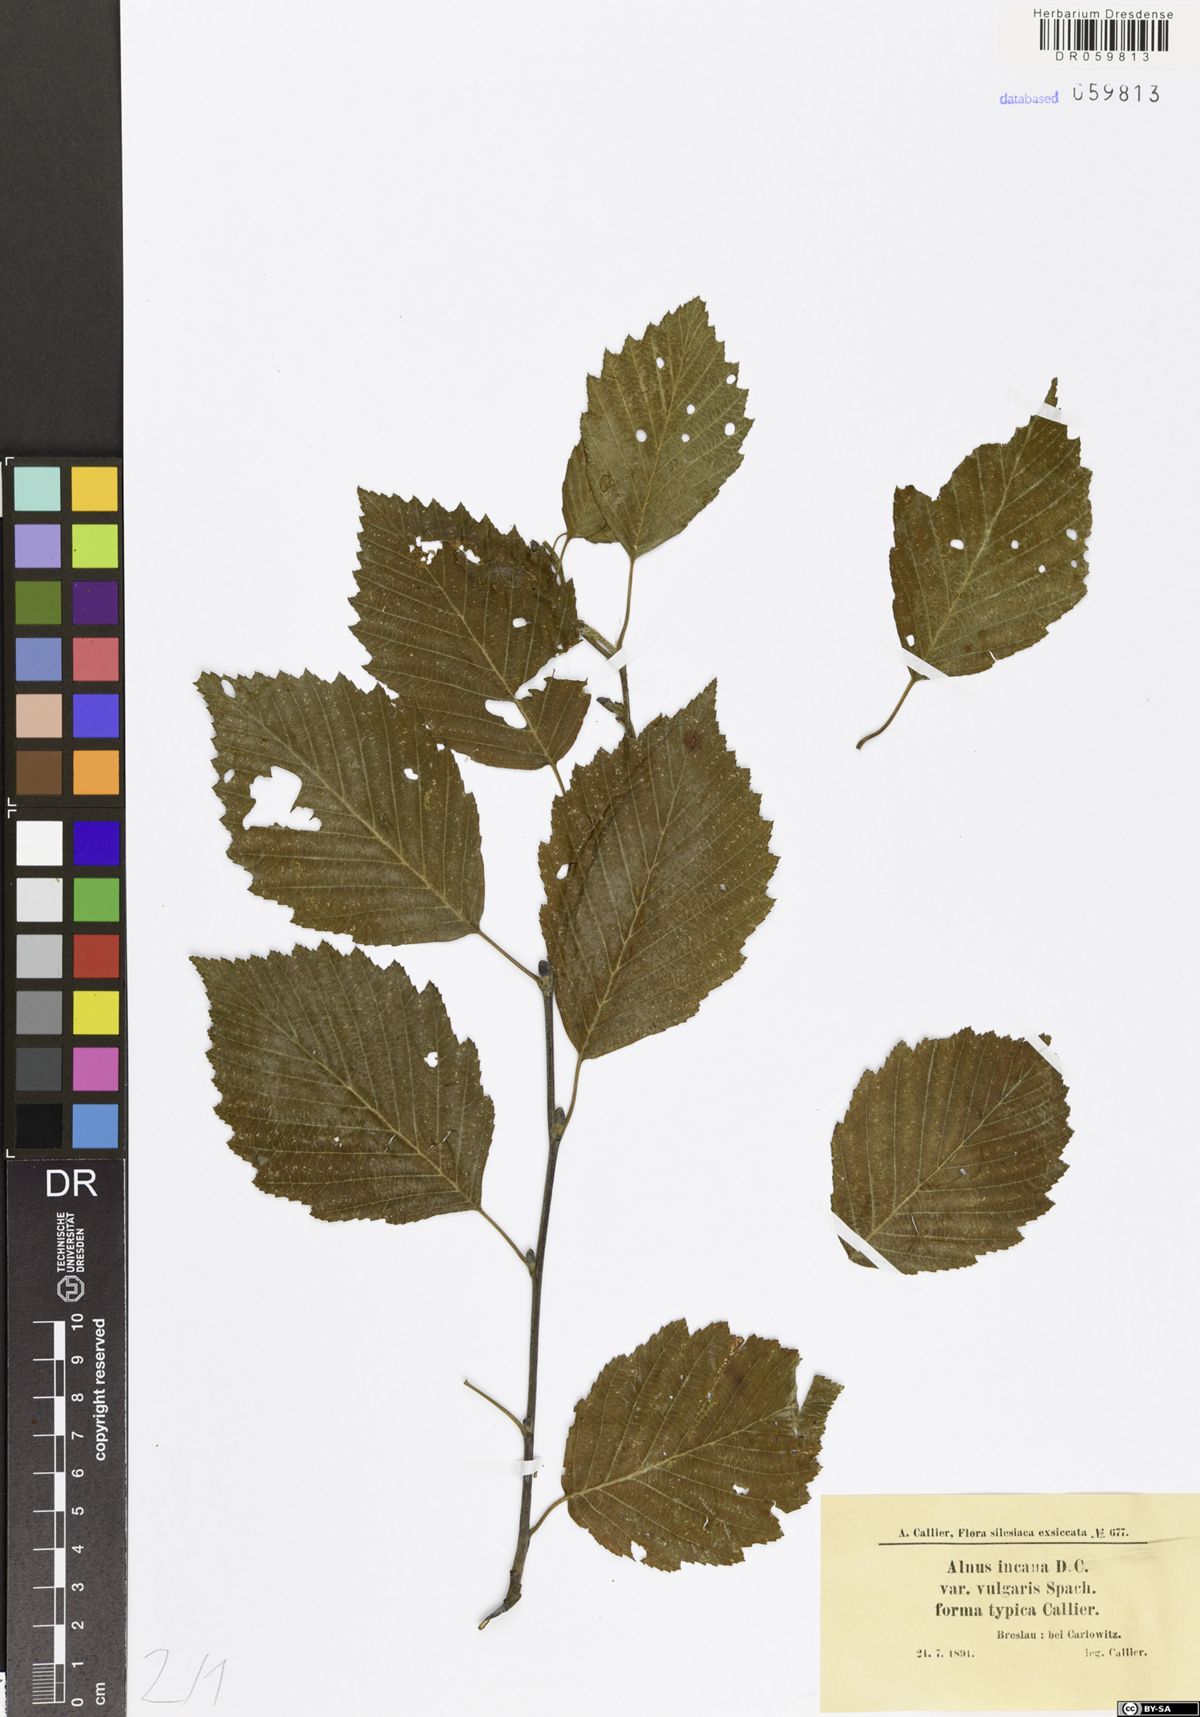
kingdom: Plantae
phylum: Tracheophyta
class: Magnoliopsida
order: Fagales
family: Betulaceae
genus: Alnus
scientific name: Alnus incana
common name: Grey alder
